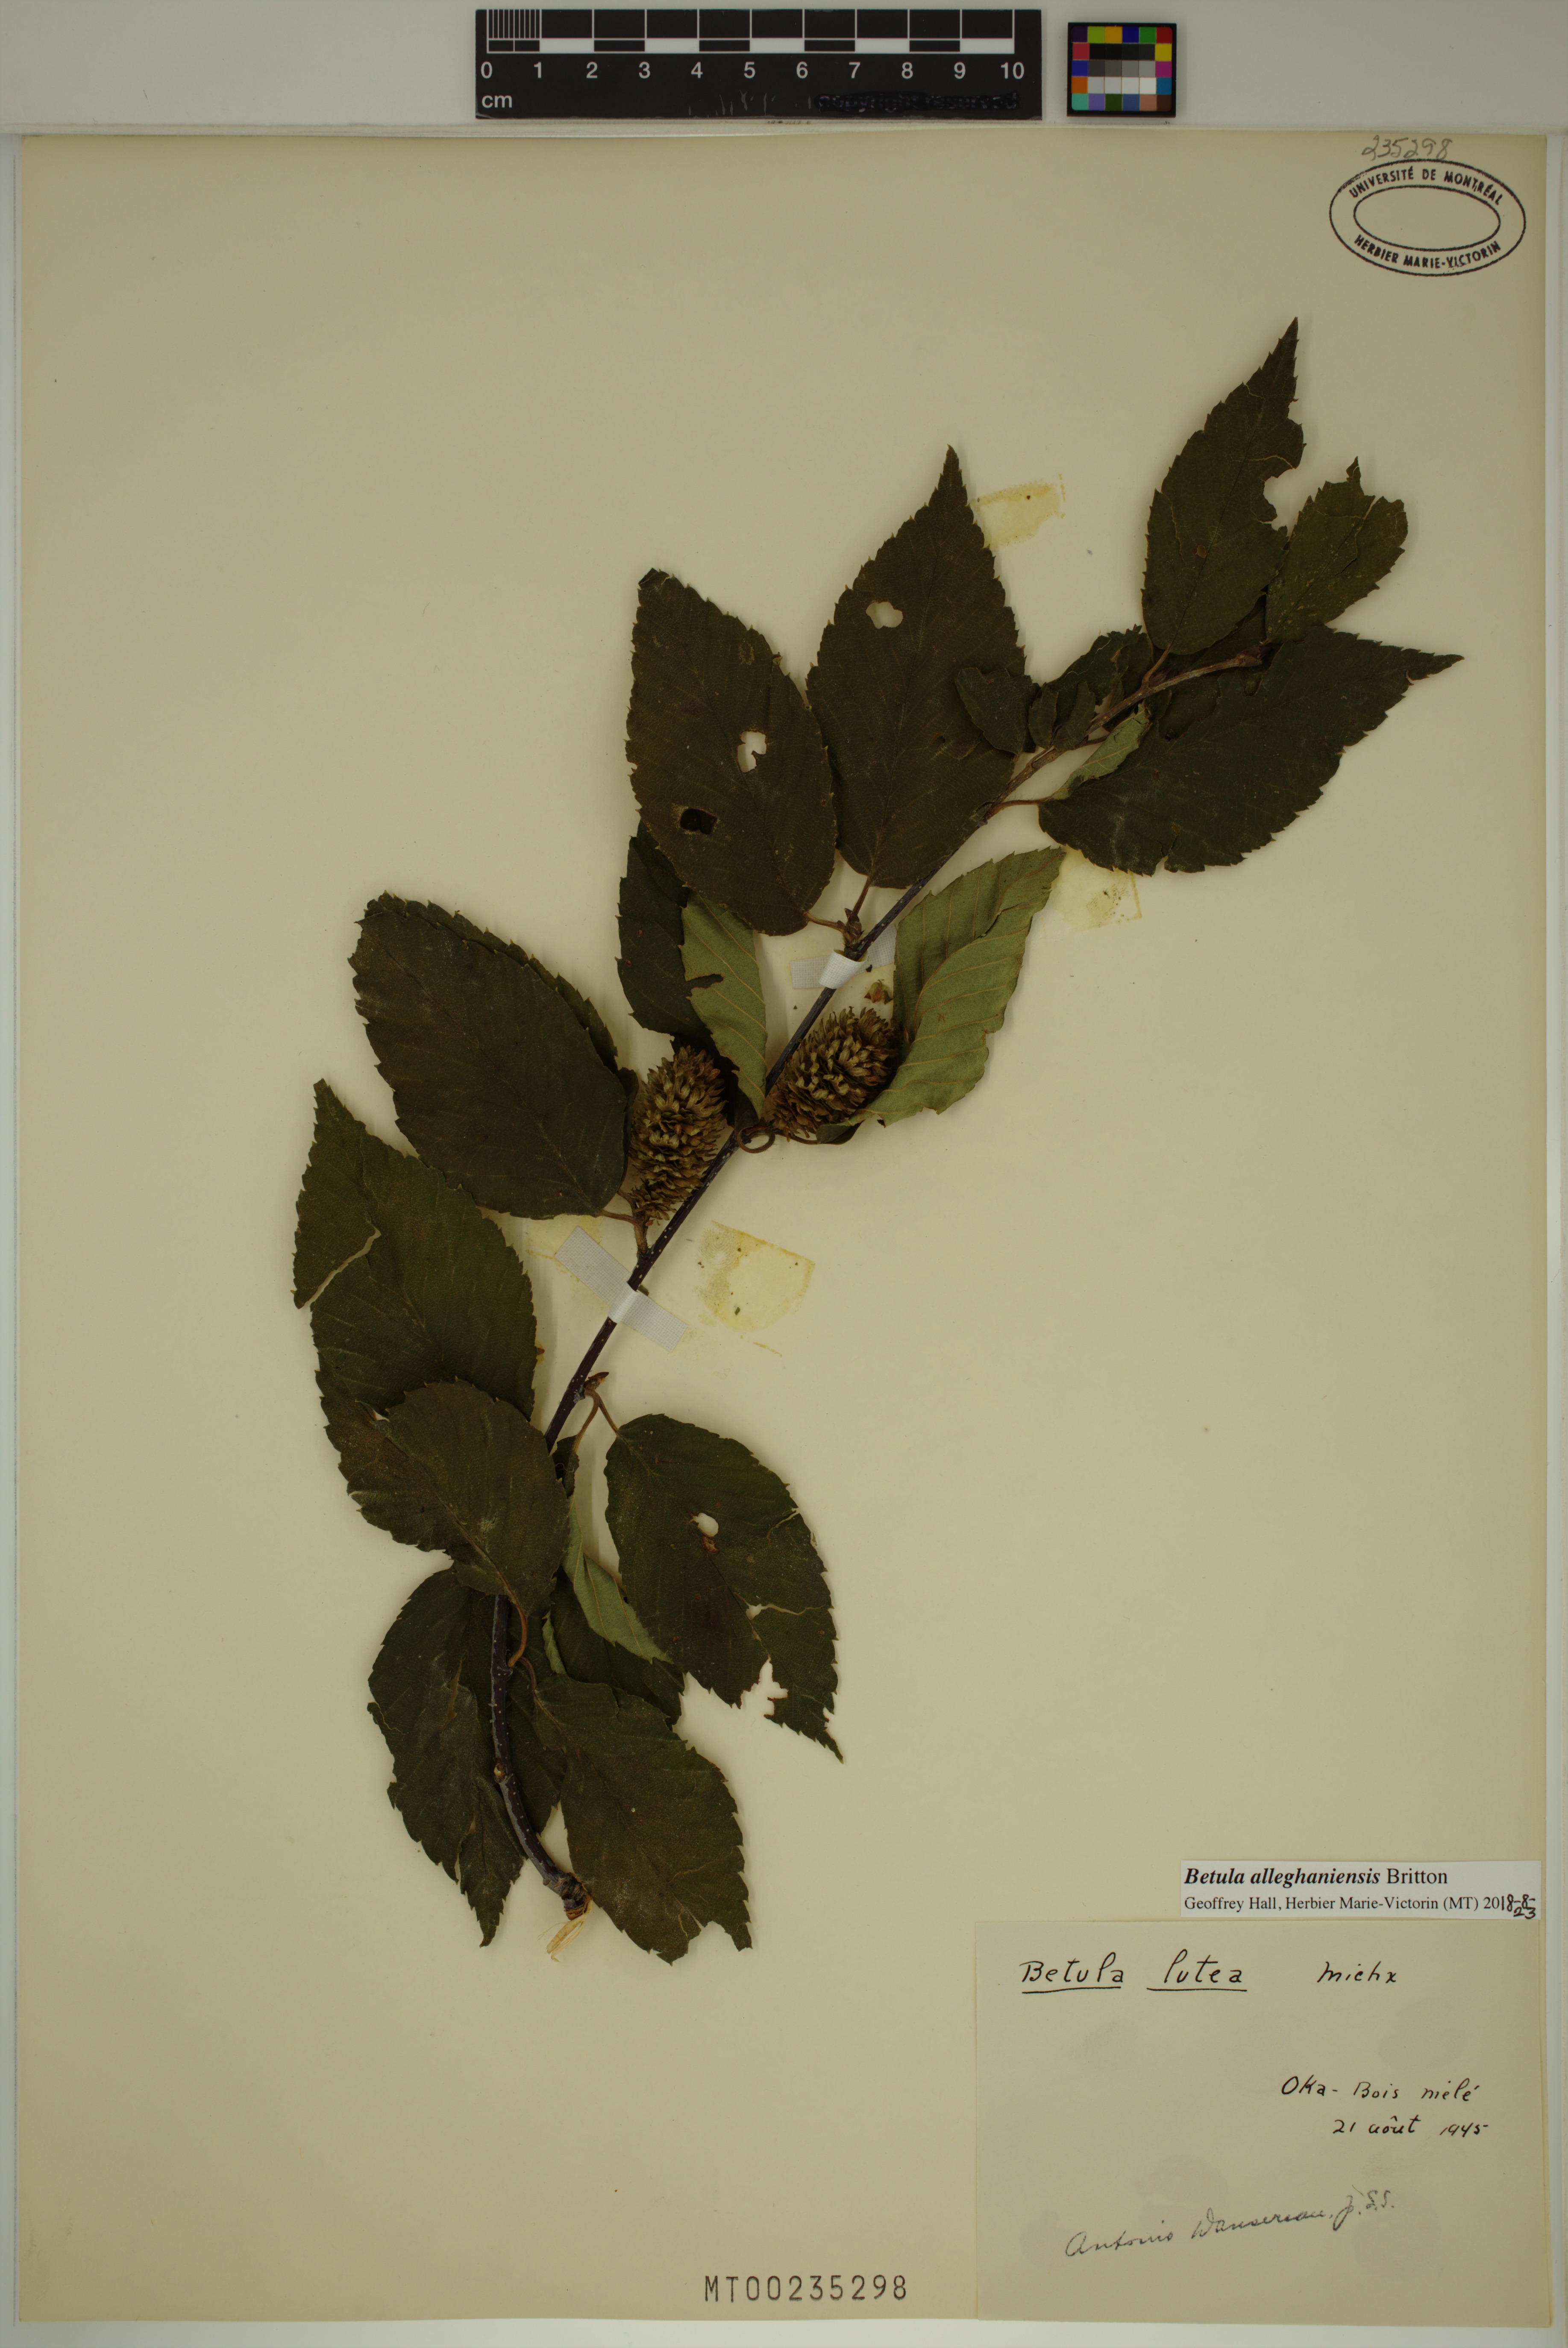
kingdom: Plantae
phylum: Tracheophyta
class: Magnoliopsida
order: Fagales
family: Betulaceae
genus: Betula
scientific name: Betula alleghaniensis
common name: Yellow birch
